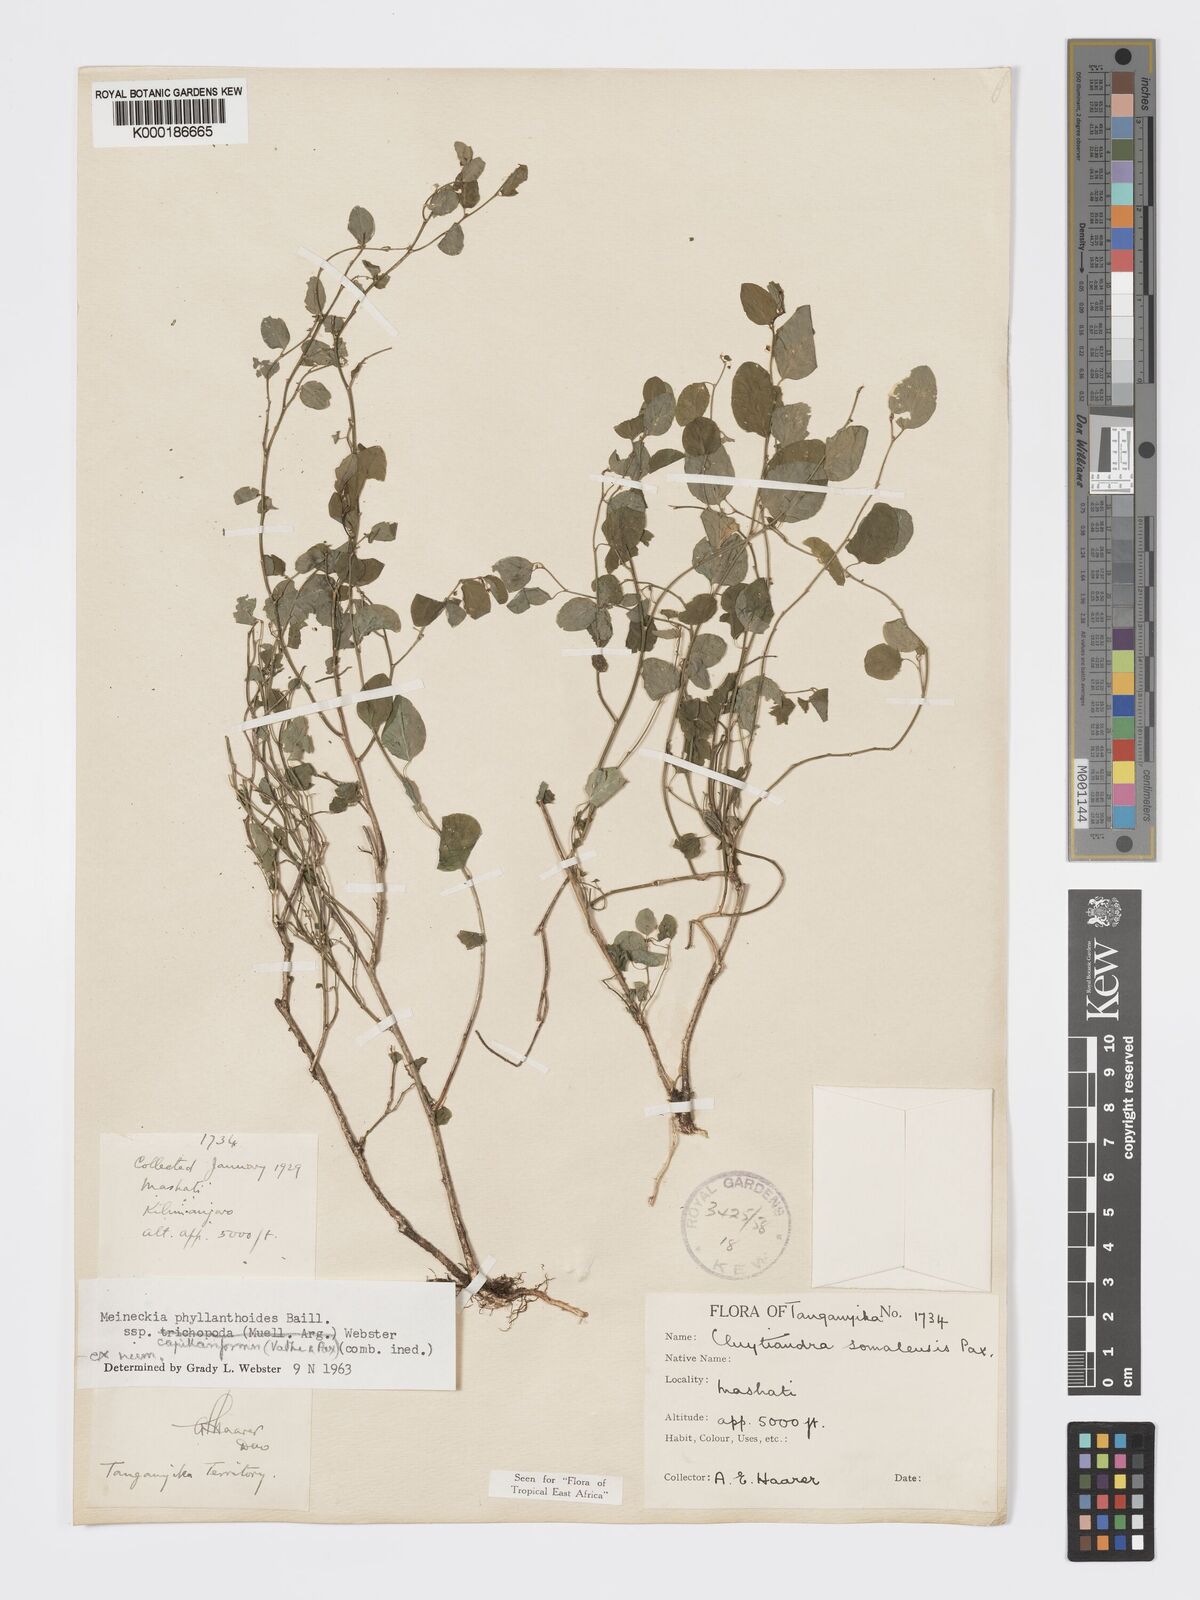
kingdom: Plantae
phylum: Tracheophyta
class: Magnoliopsida
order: Malpighiales
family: Phyllanthaceae
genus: Meineckia
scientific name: Meineckia phyllanthoides
